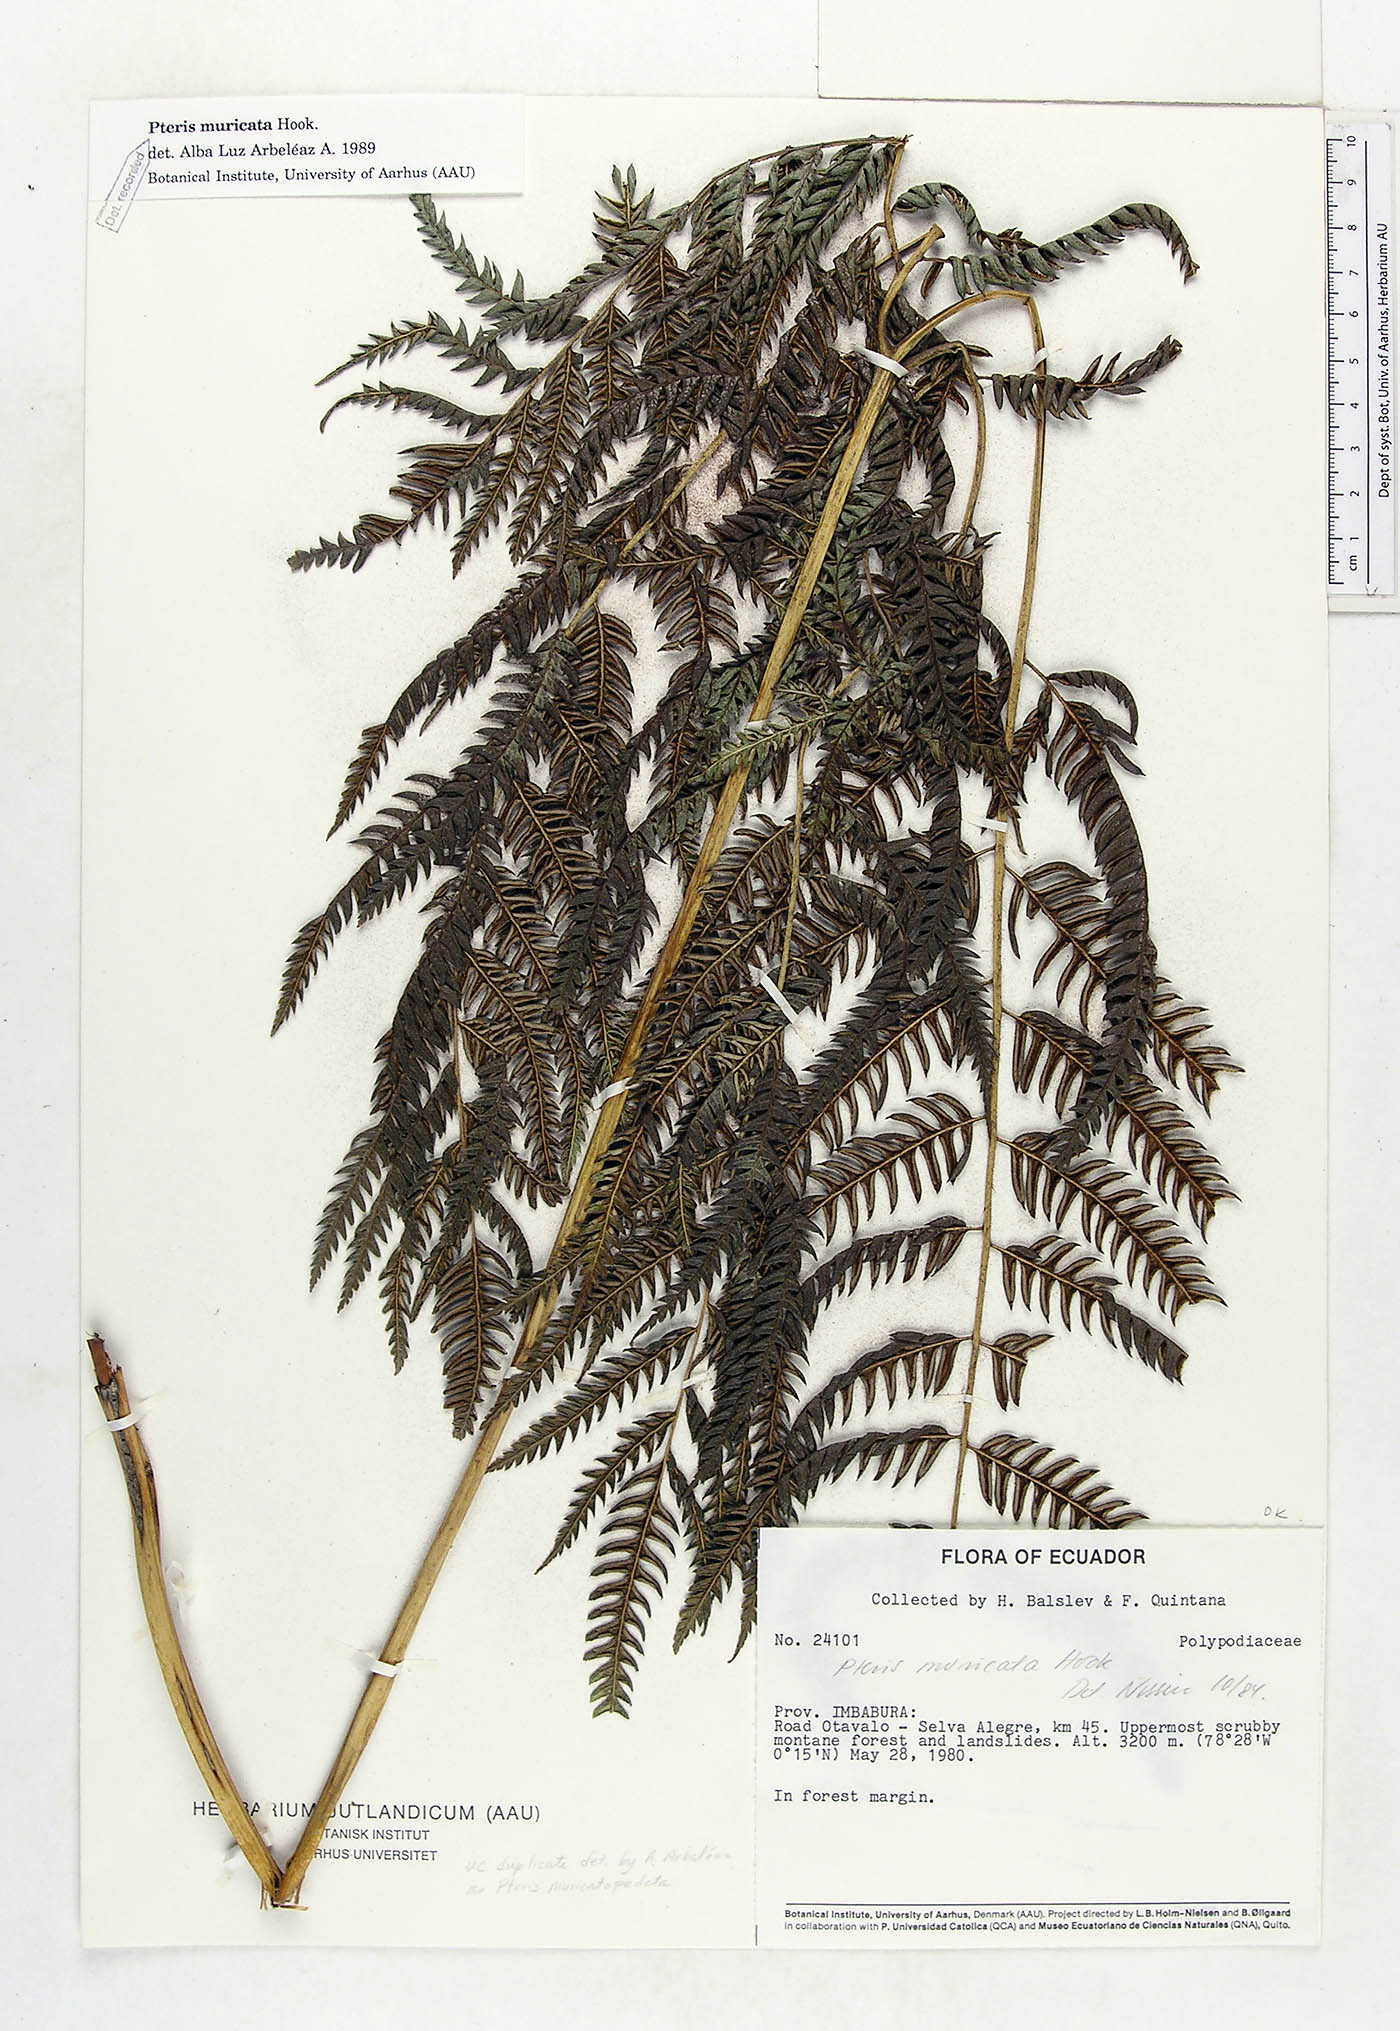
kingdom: Plantae
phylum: Tracheophyta
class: Polypodiopsida
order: Polypodiales
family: Pteridaceae
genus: Pteris
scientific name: Pteris muricata
